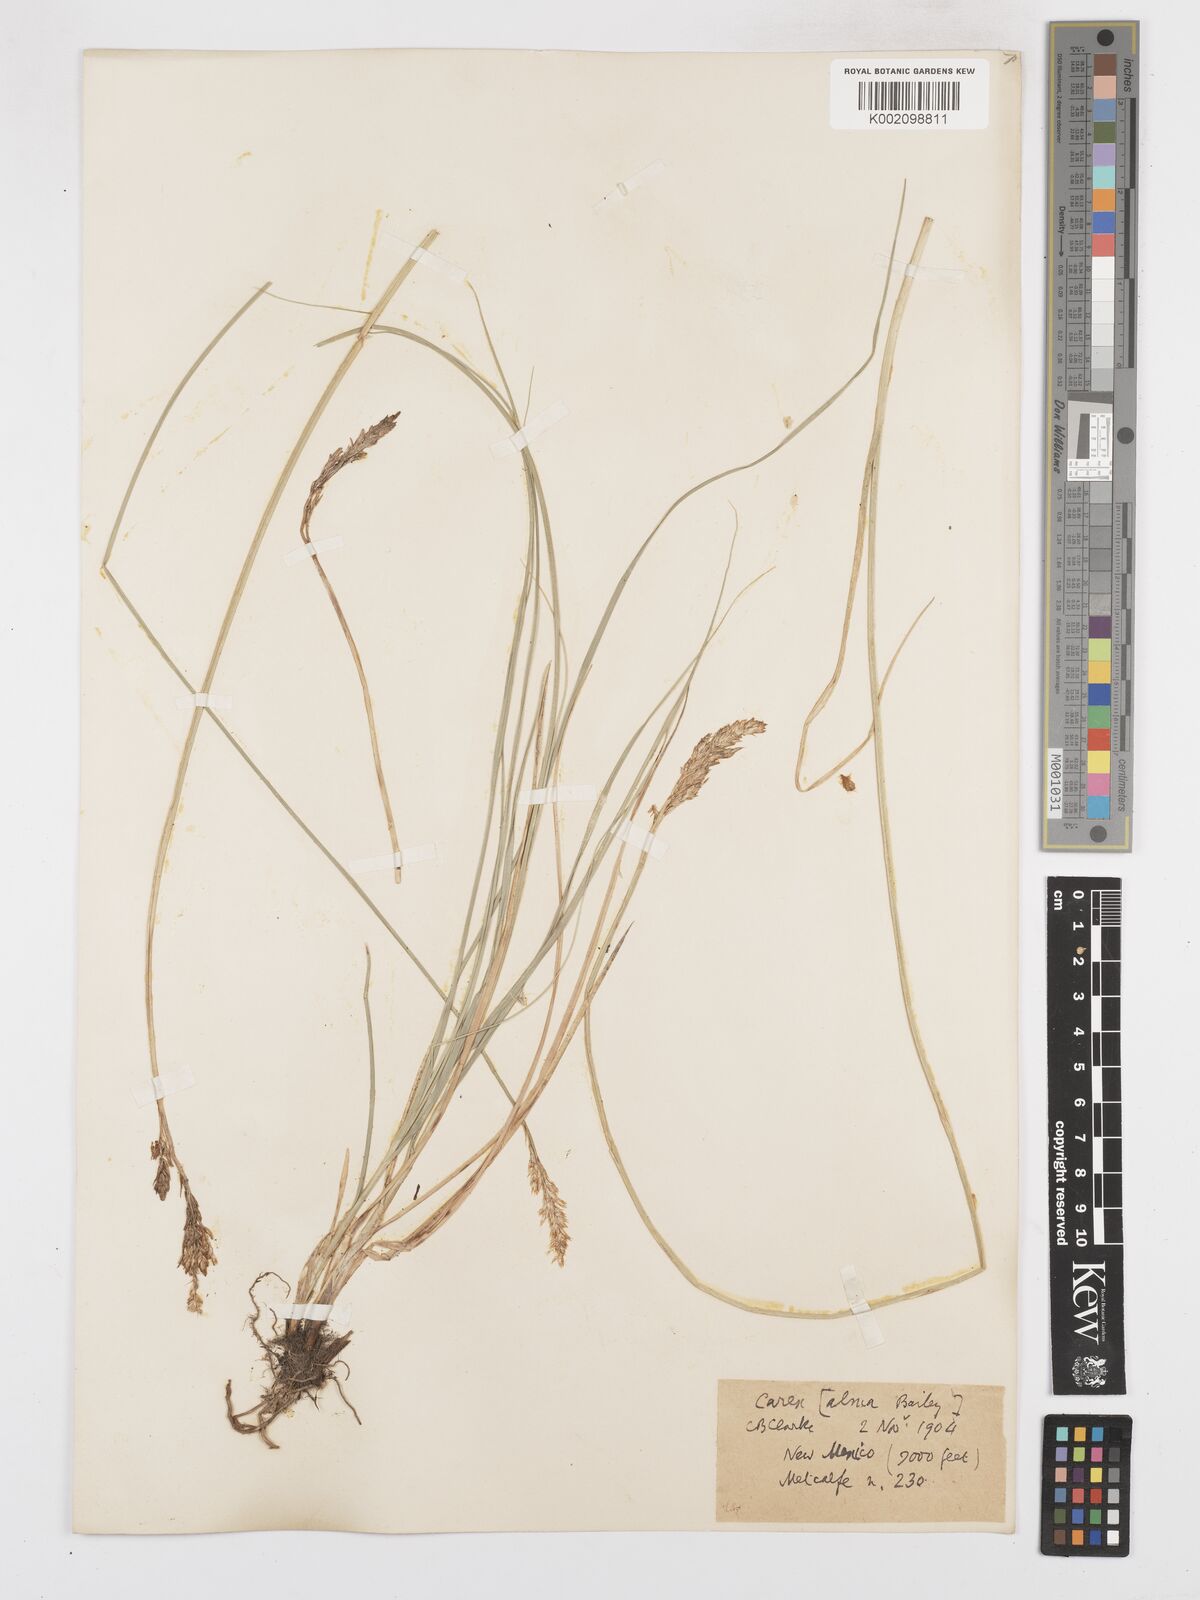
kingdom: Plantae
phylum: Tracheophyta
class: Liliopsida
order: Poales
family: Cyperaceae
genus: Carex
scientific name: Carex alma
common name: Alma sedge
